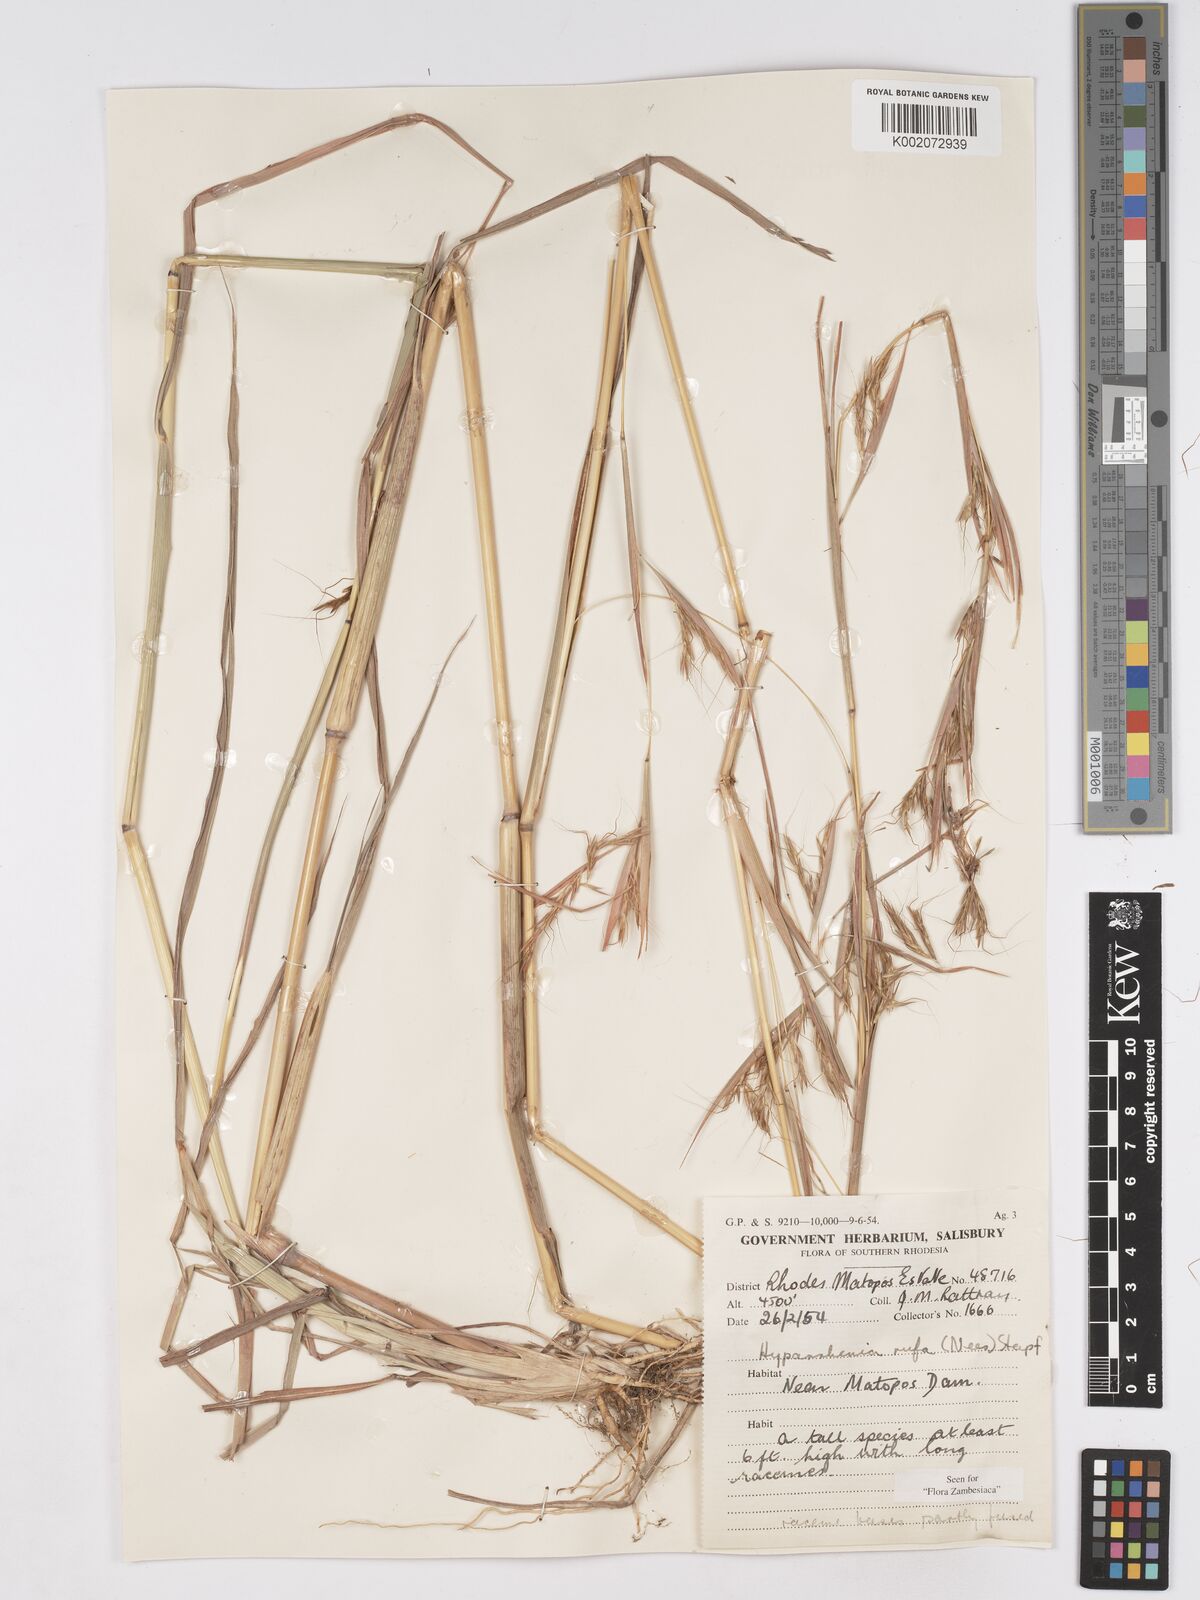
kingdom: Plantae
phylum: Tracheophyta
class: Liliopsida
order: Poales
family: Poaceae
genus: Hyparrhenia
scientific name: Hyparrhenia rufa
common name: Jaraguagrass
